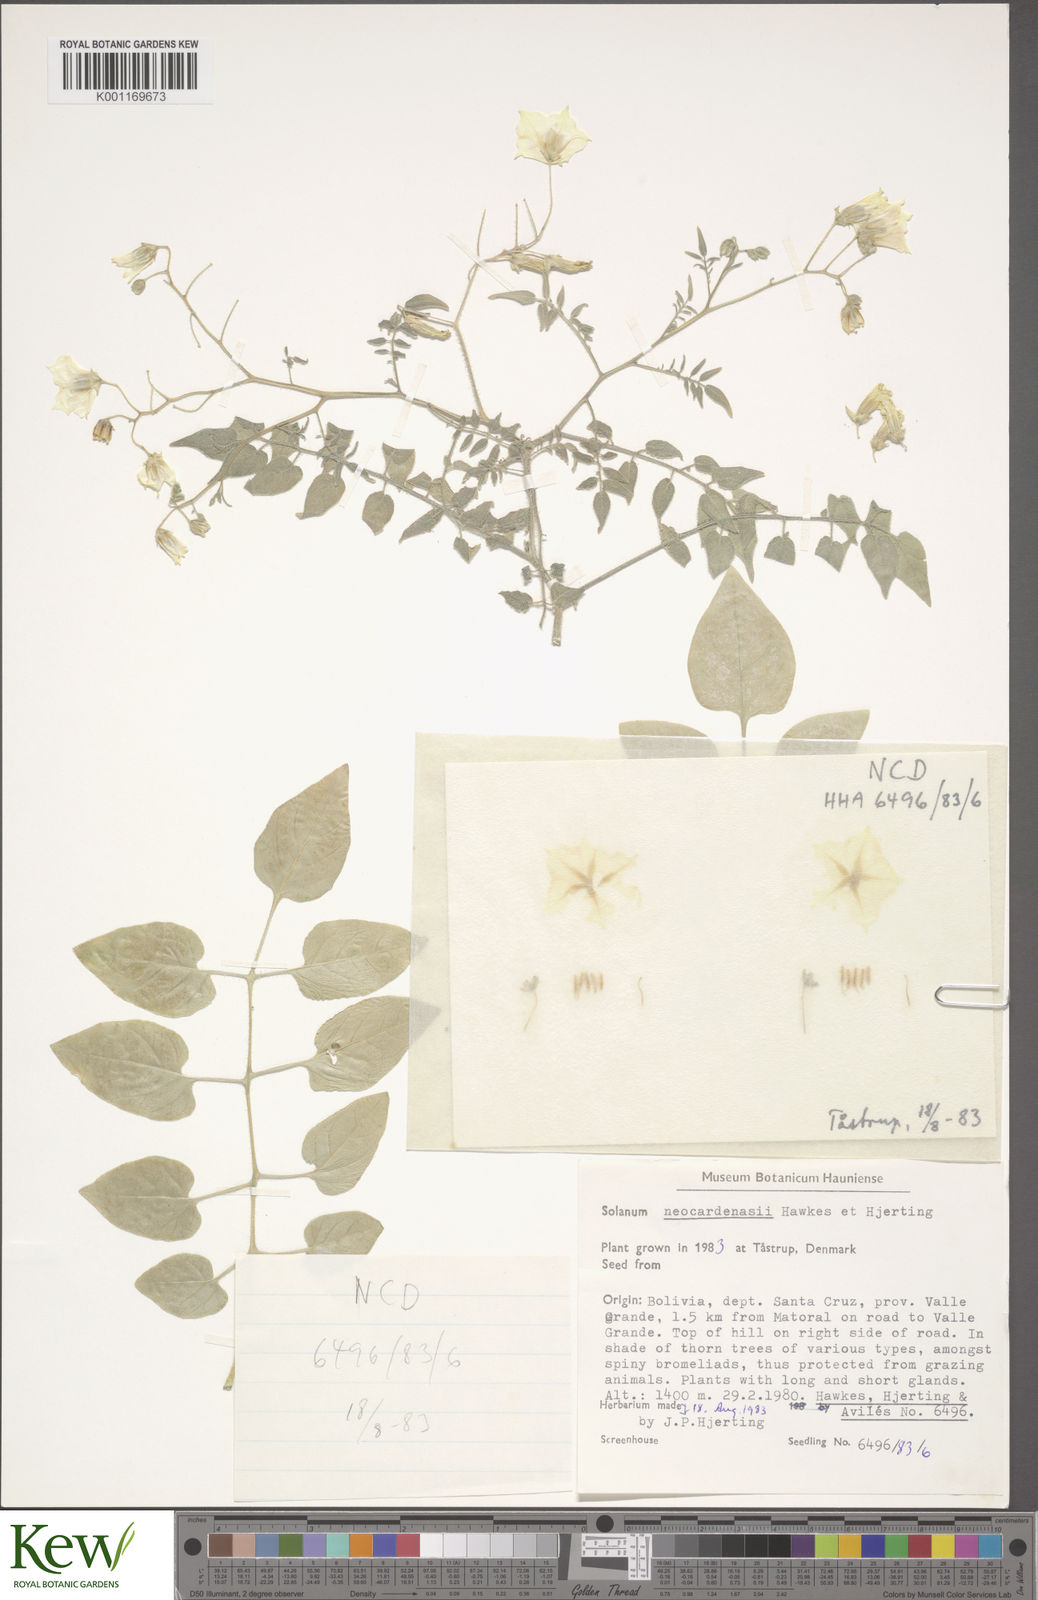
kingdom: Plantae
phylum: Tracheophyta
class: Magnoliopsida
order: Solanales
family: Solanaceae
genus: Solanum
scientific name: Solanum neocardenasii
